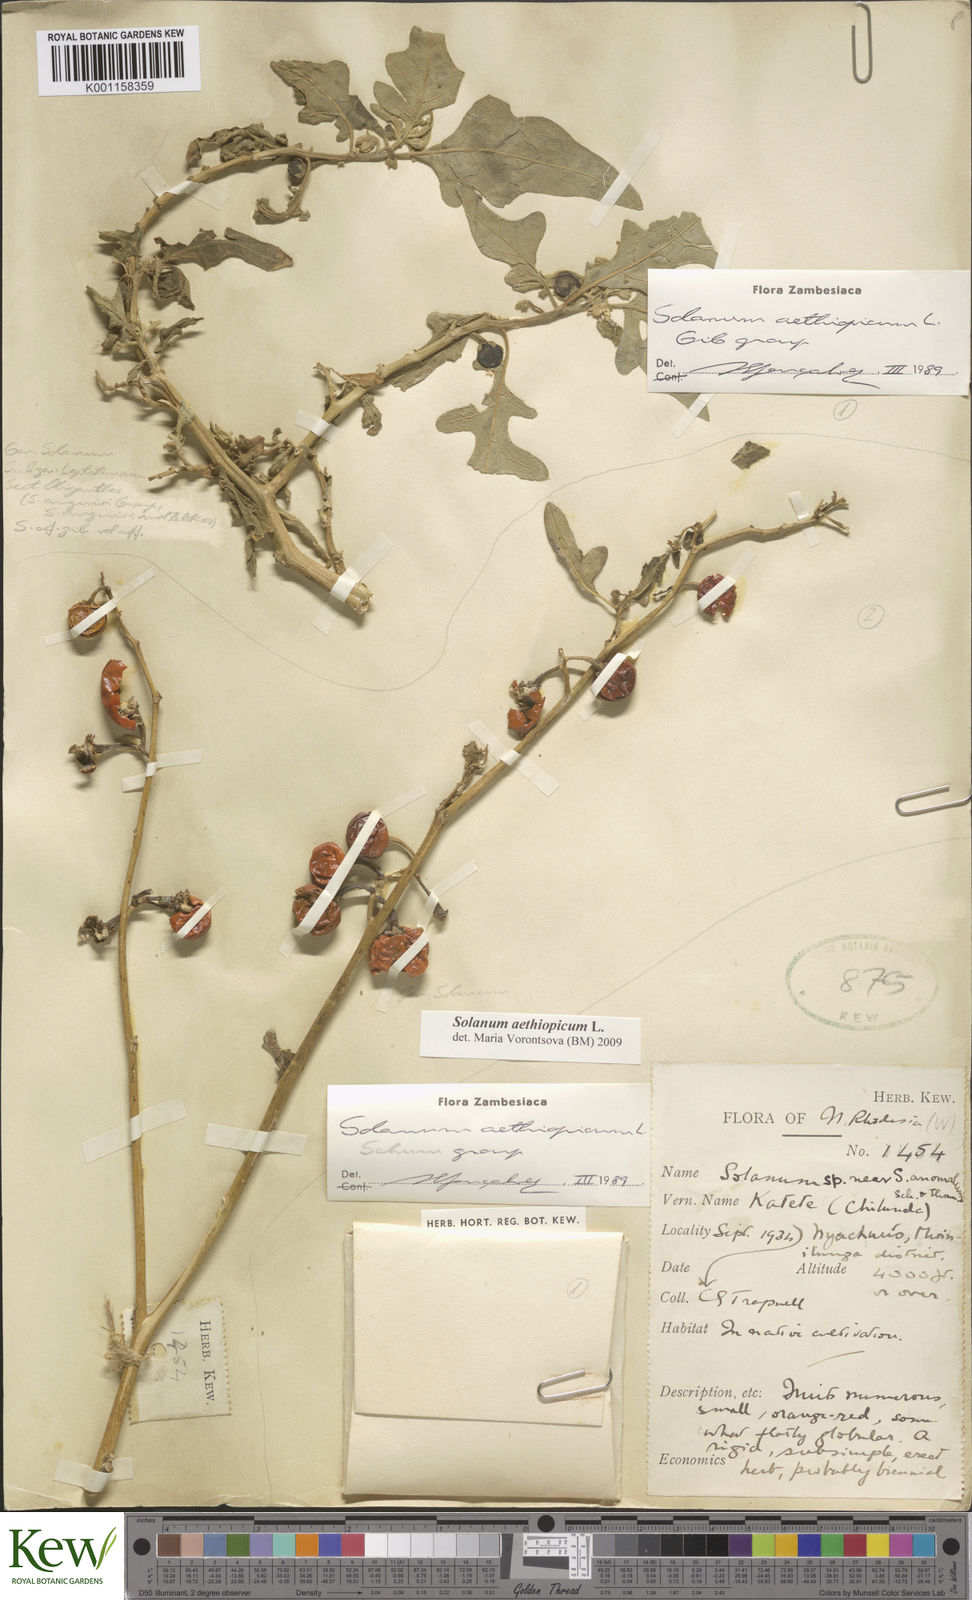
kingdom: Plantae
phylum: Tracheophyta
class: Magnoliopsida
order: Solanales
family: Solanaceae
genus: Solanum
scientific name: Solanum aethiopicum
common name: Gilo
